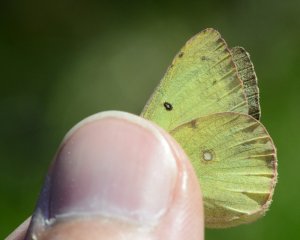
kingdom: Animalia
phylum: Arthropoda
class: Insecta
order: Lepidoptera
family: Pieridae
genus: Colias
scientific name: Colias philodice
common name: Clouded Sulphur
